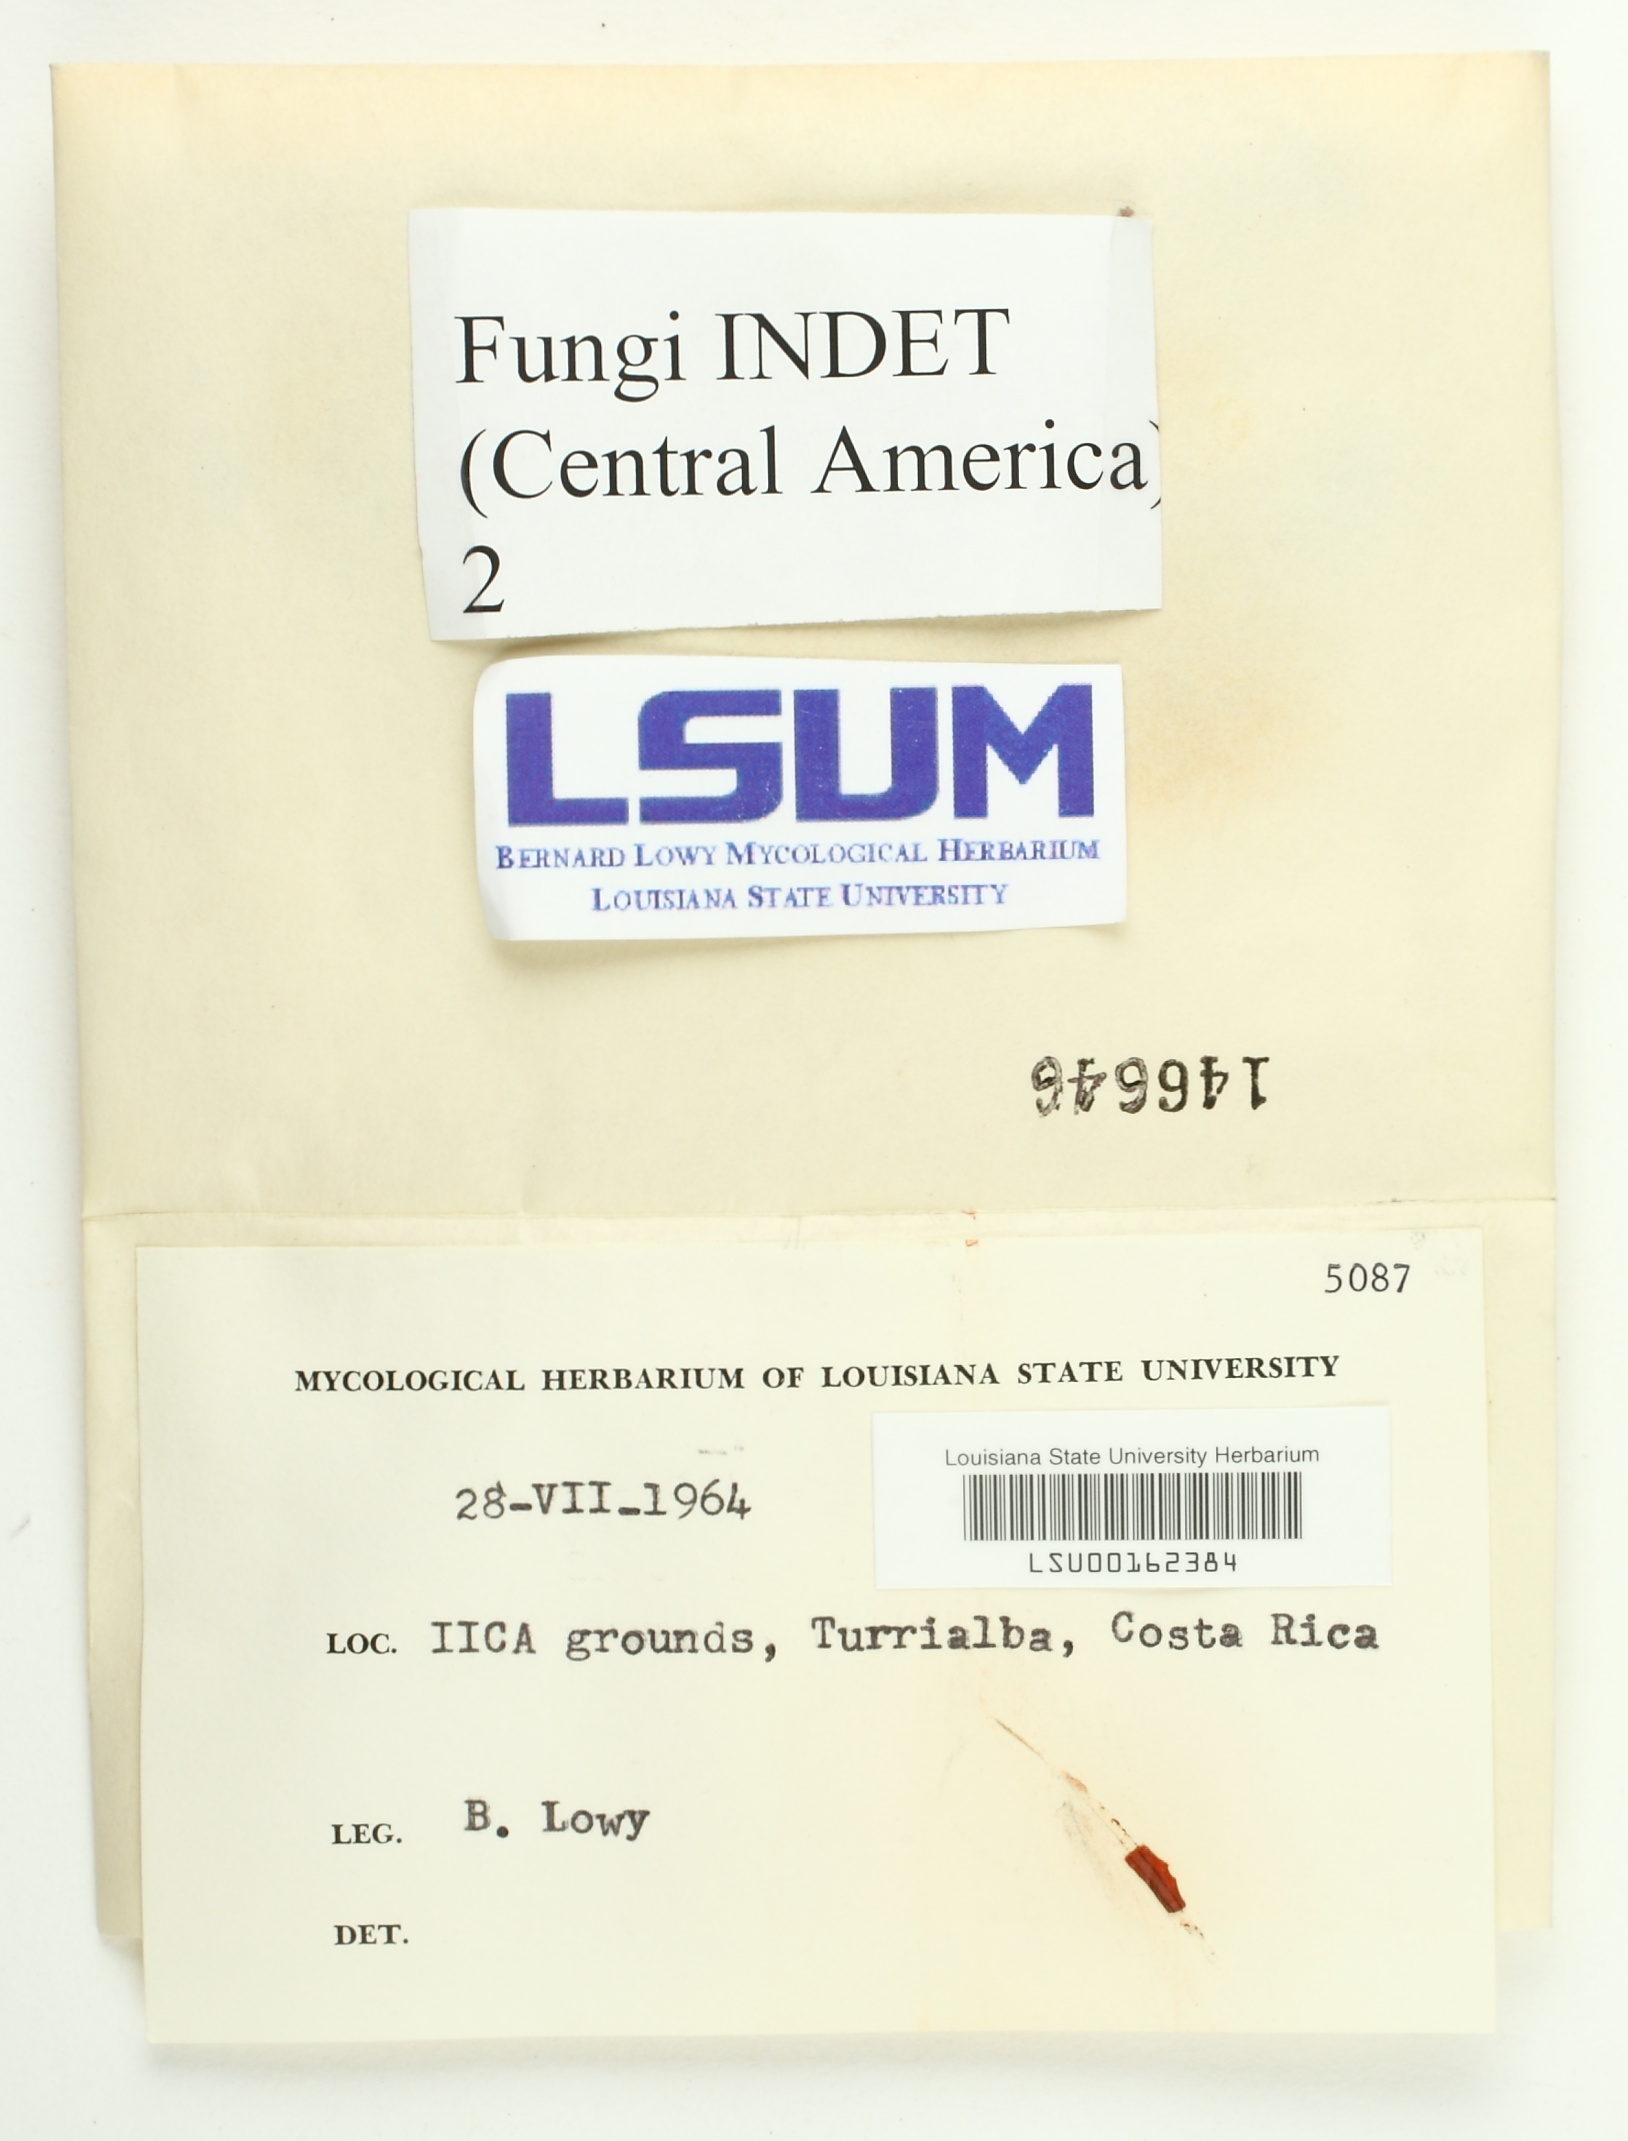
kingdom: Fungi
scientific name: Fungi
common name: Fungi
